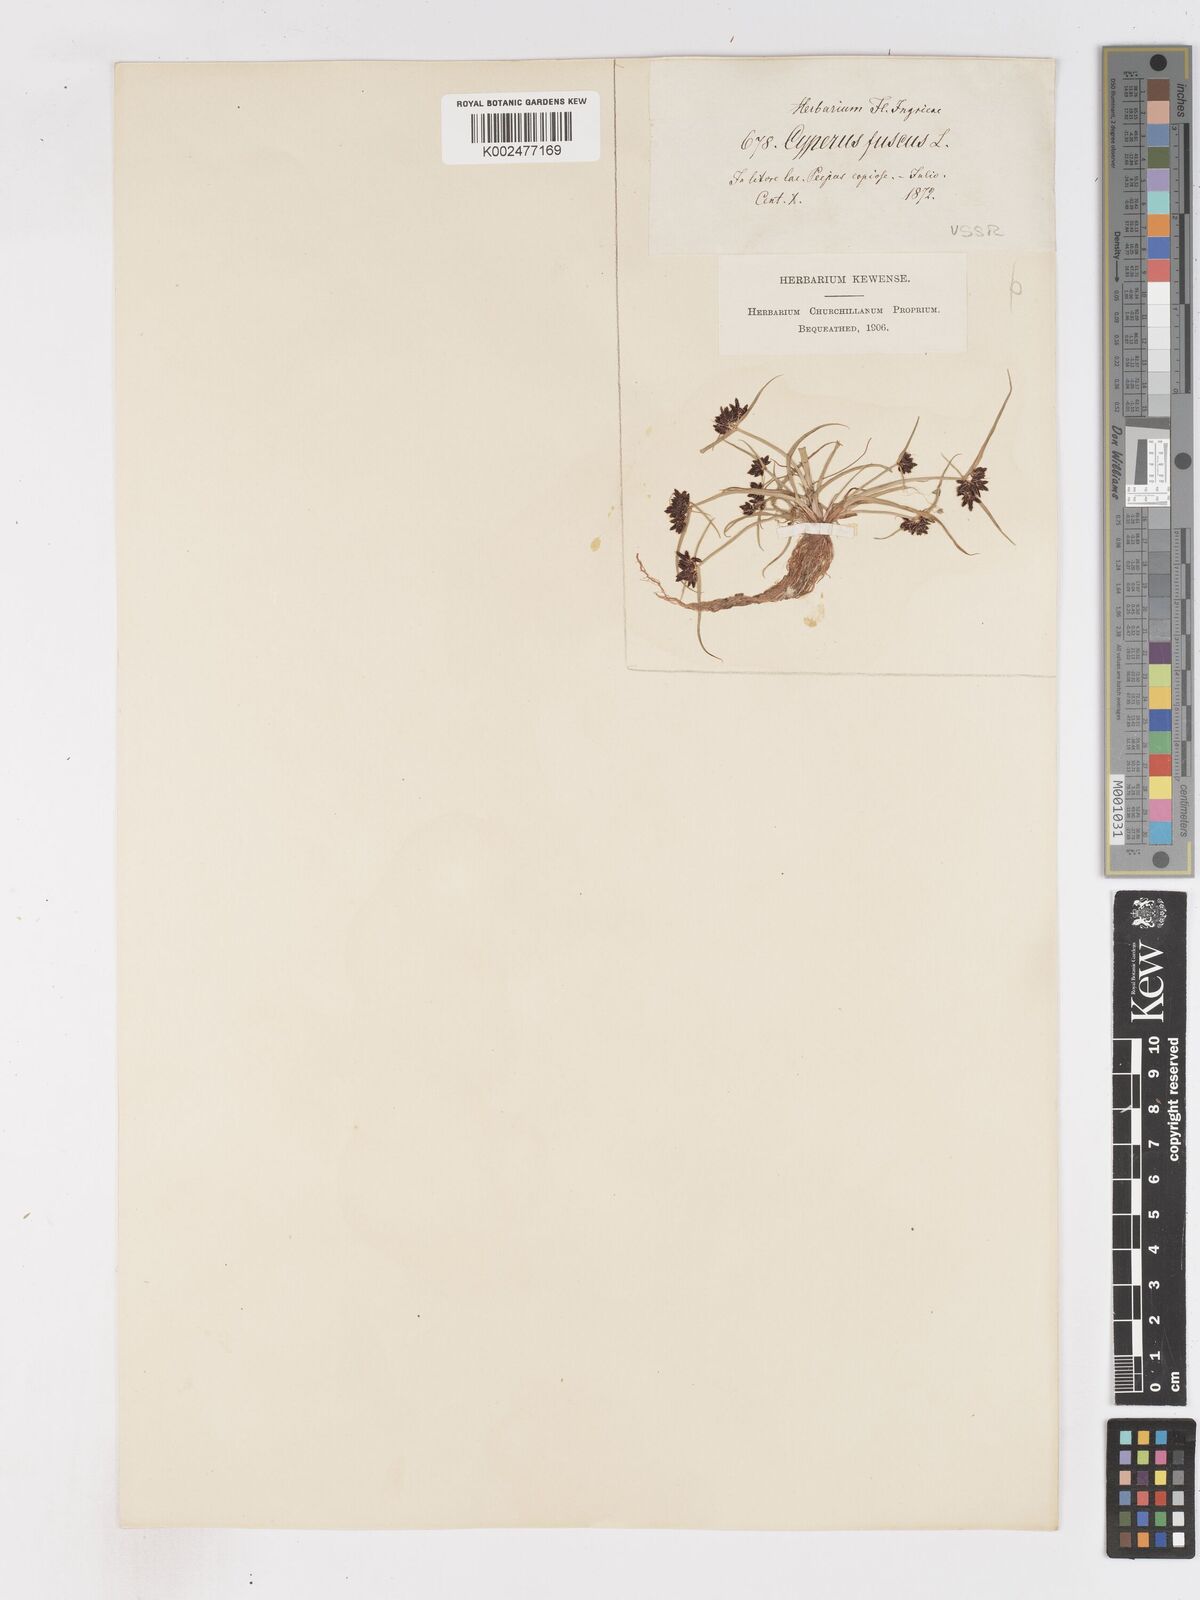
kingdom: Plantae
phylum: Tracheophyta
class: Liliopsida
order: Poales
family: Cyperaceae
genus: Cyperus
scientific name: Cyperus fuscus
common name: Brown galingale
